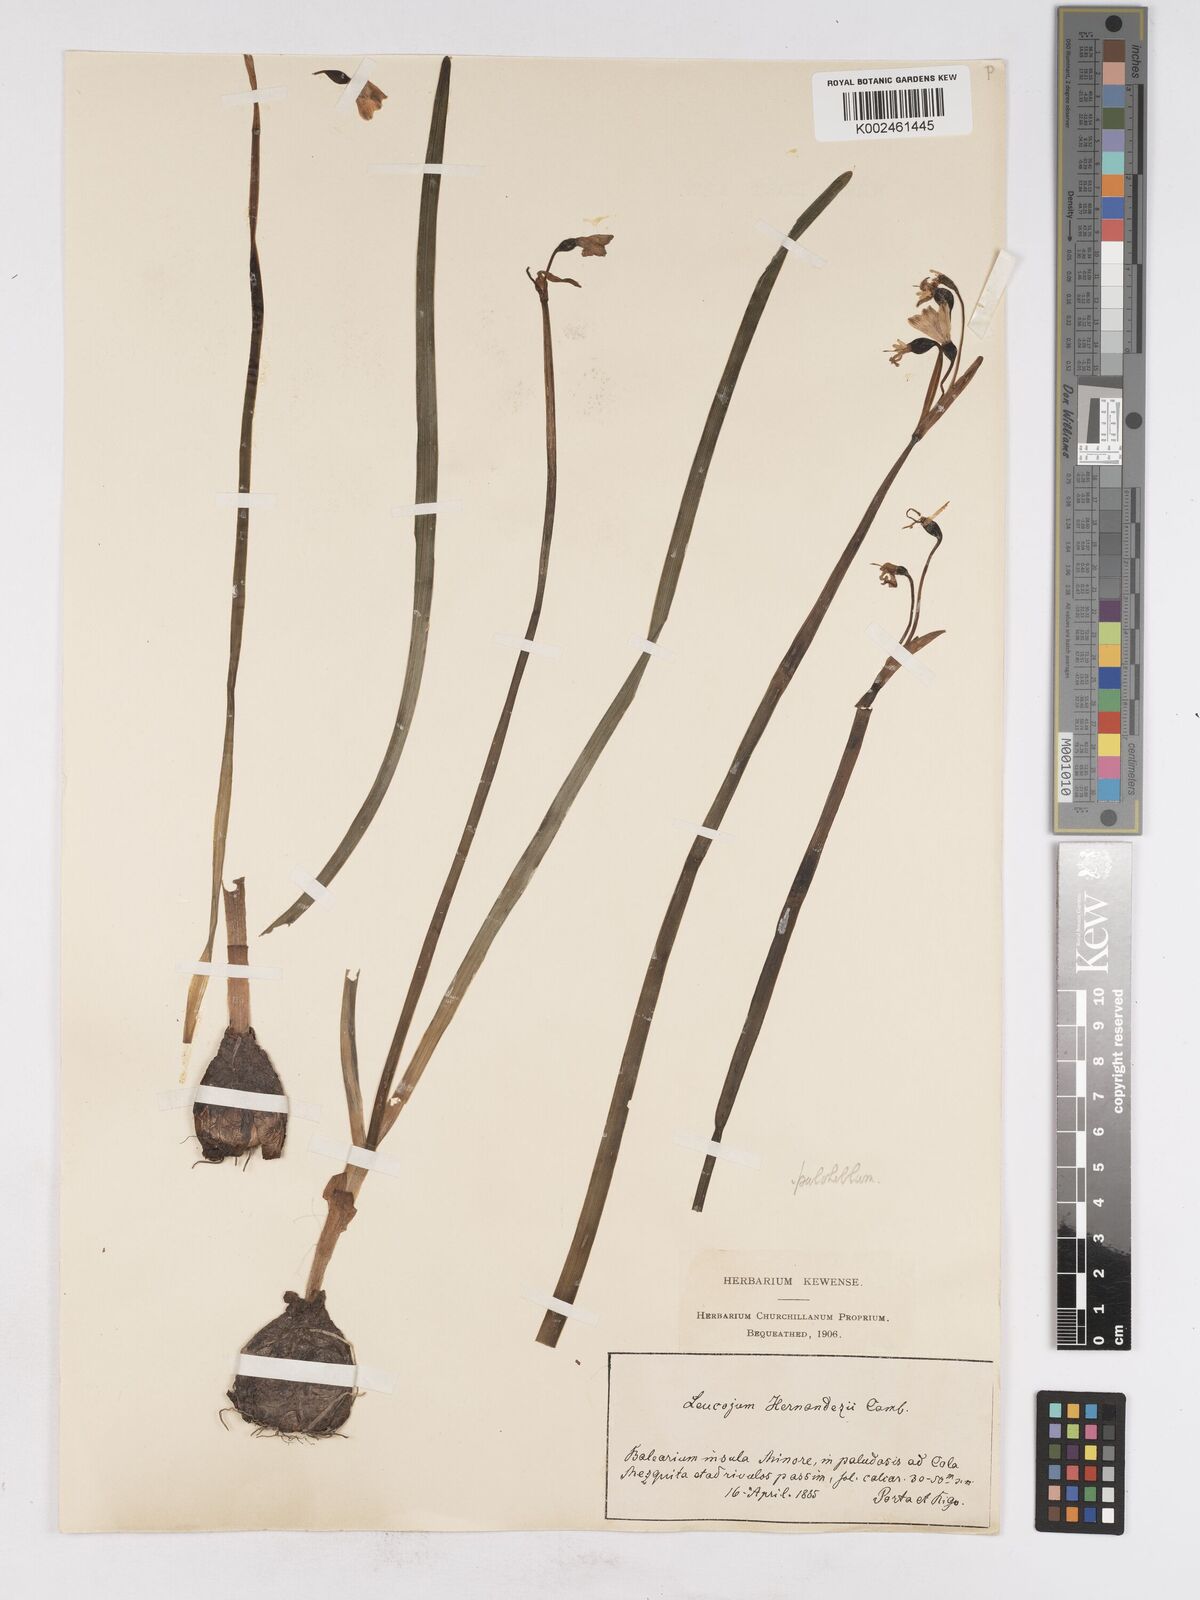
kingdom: Plantae
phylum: Tracheophyta
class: Liliopsida
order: Asparagales
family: Amaryllidaceae
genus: Leucojum
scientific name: Leucojum aestivum
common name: Summer snowflake
